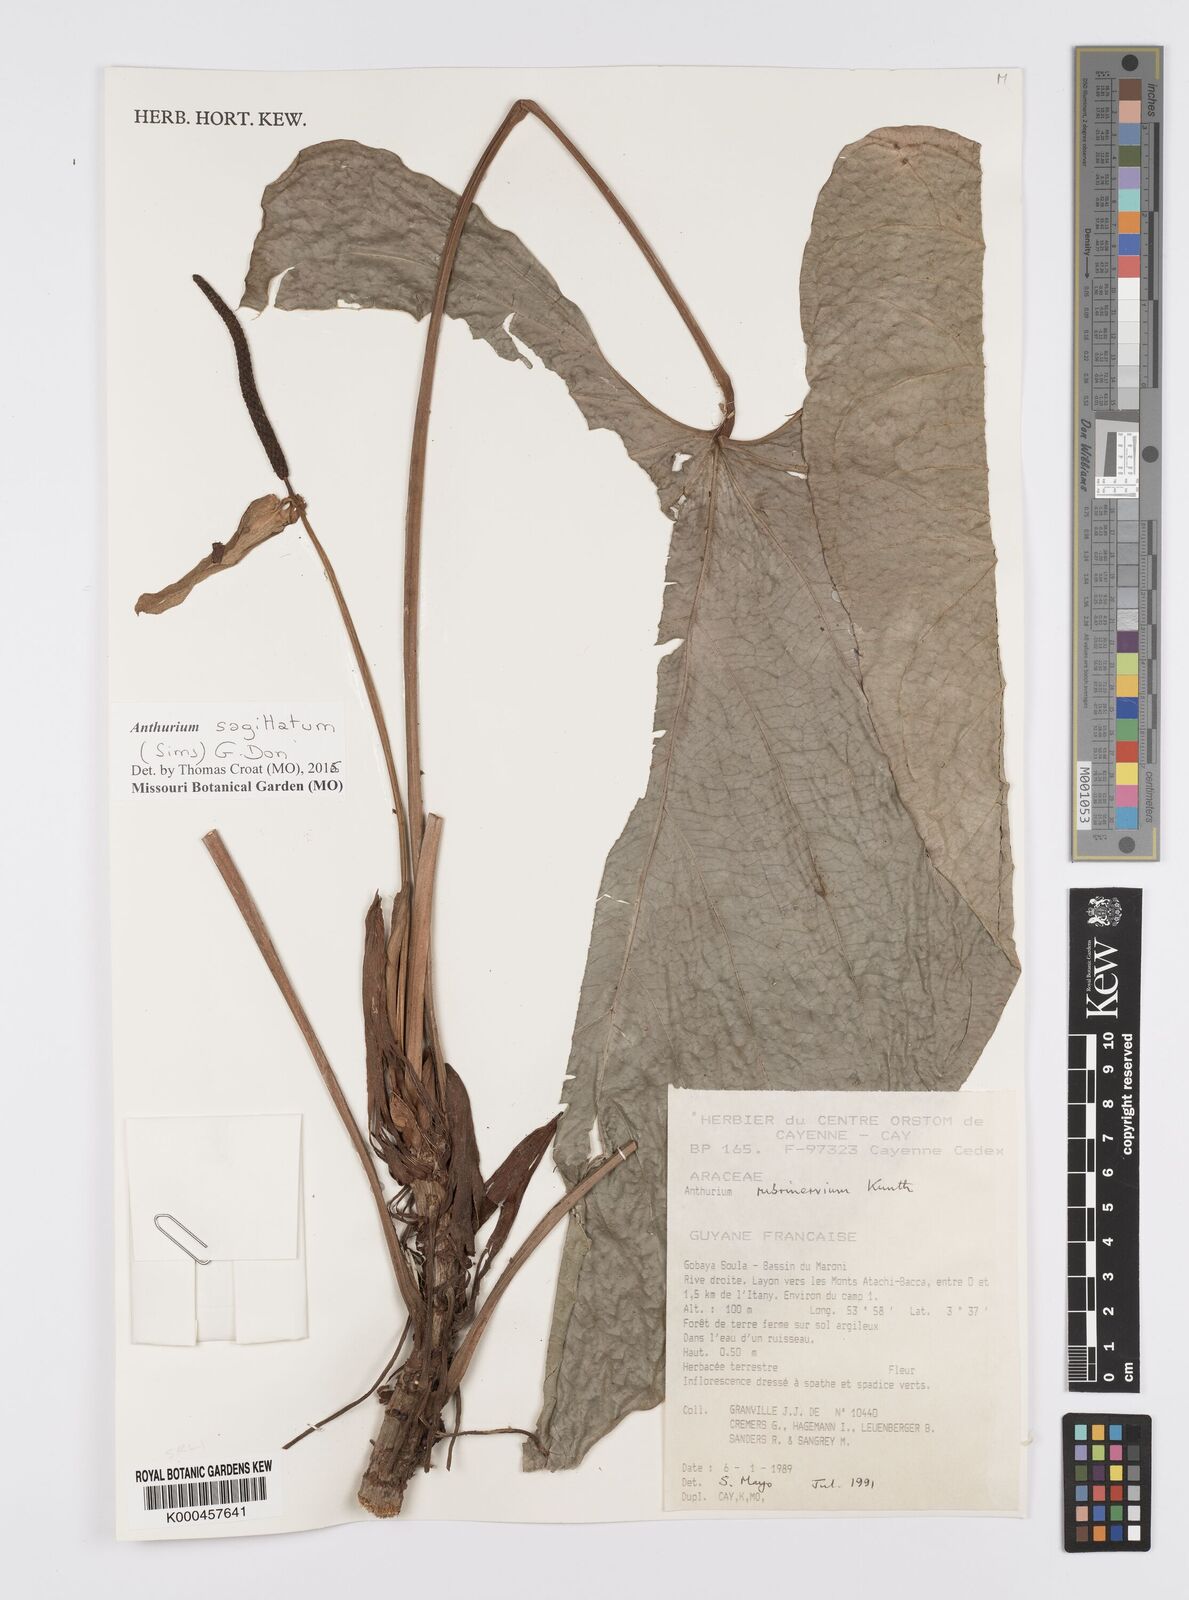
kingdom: Plantae
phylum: Tracheophyta
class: Liliopsida
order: Alismatales
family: Araceae
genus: Anthurium
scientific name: Anthurium sagittatum
